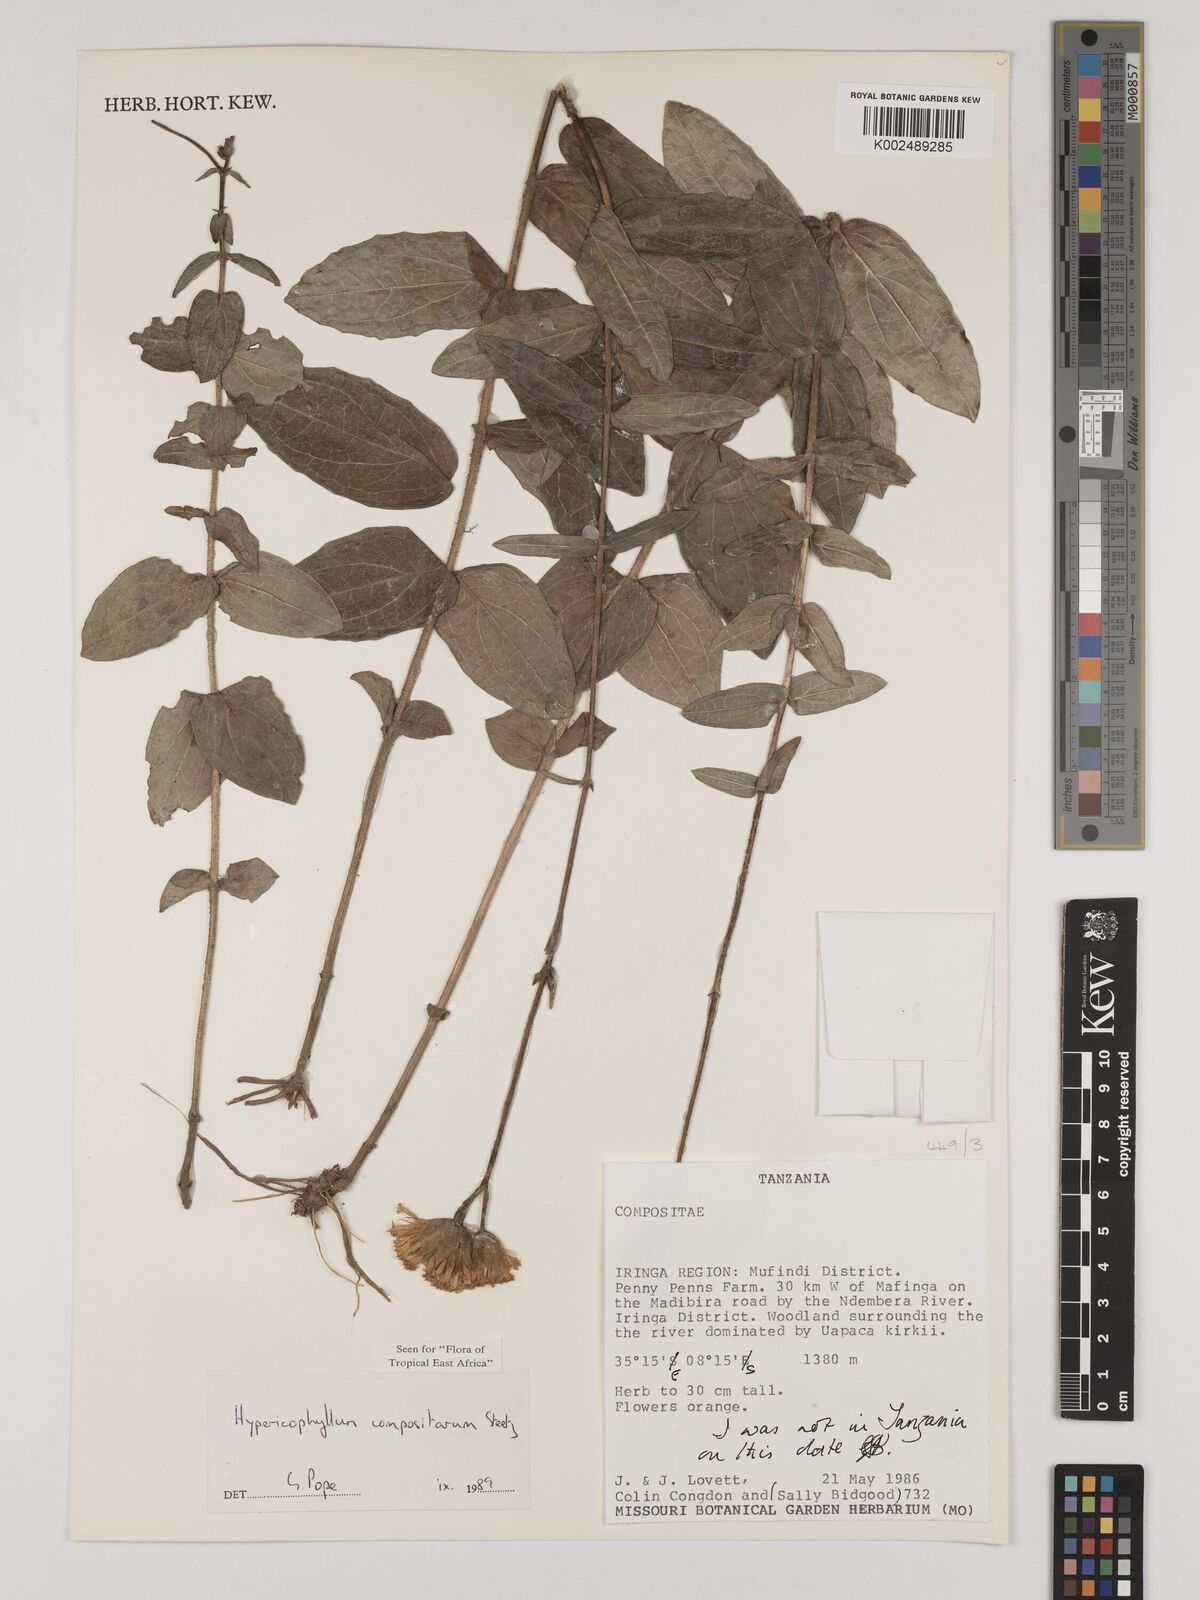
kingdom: Plantae
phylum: Tracheophyta
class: Magnoliopsida
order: Asterales
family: Asteraceae
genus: Hypericophyllum
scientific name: Hypericophyllum compositarum
